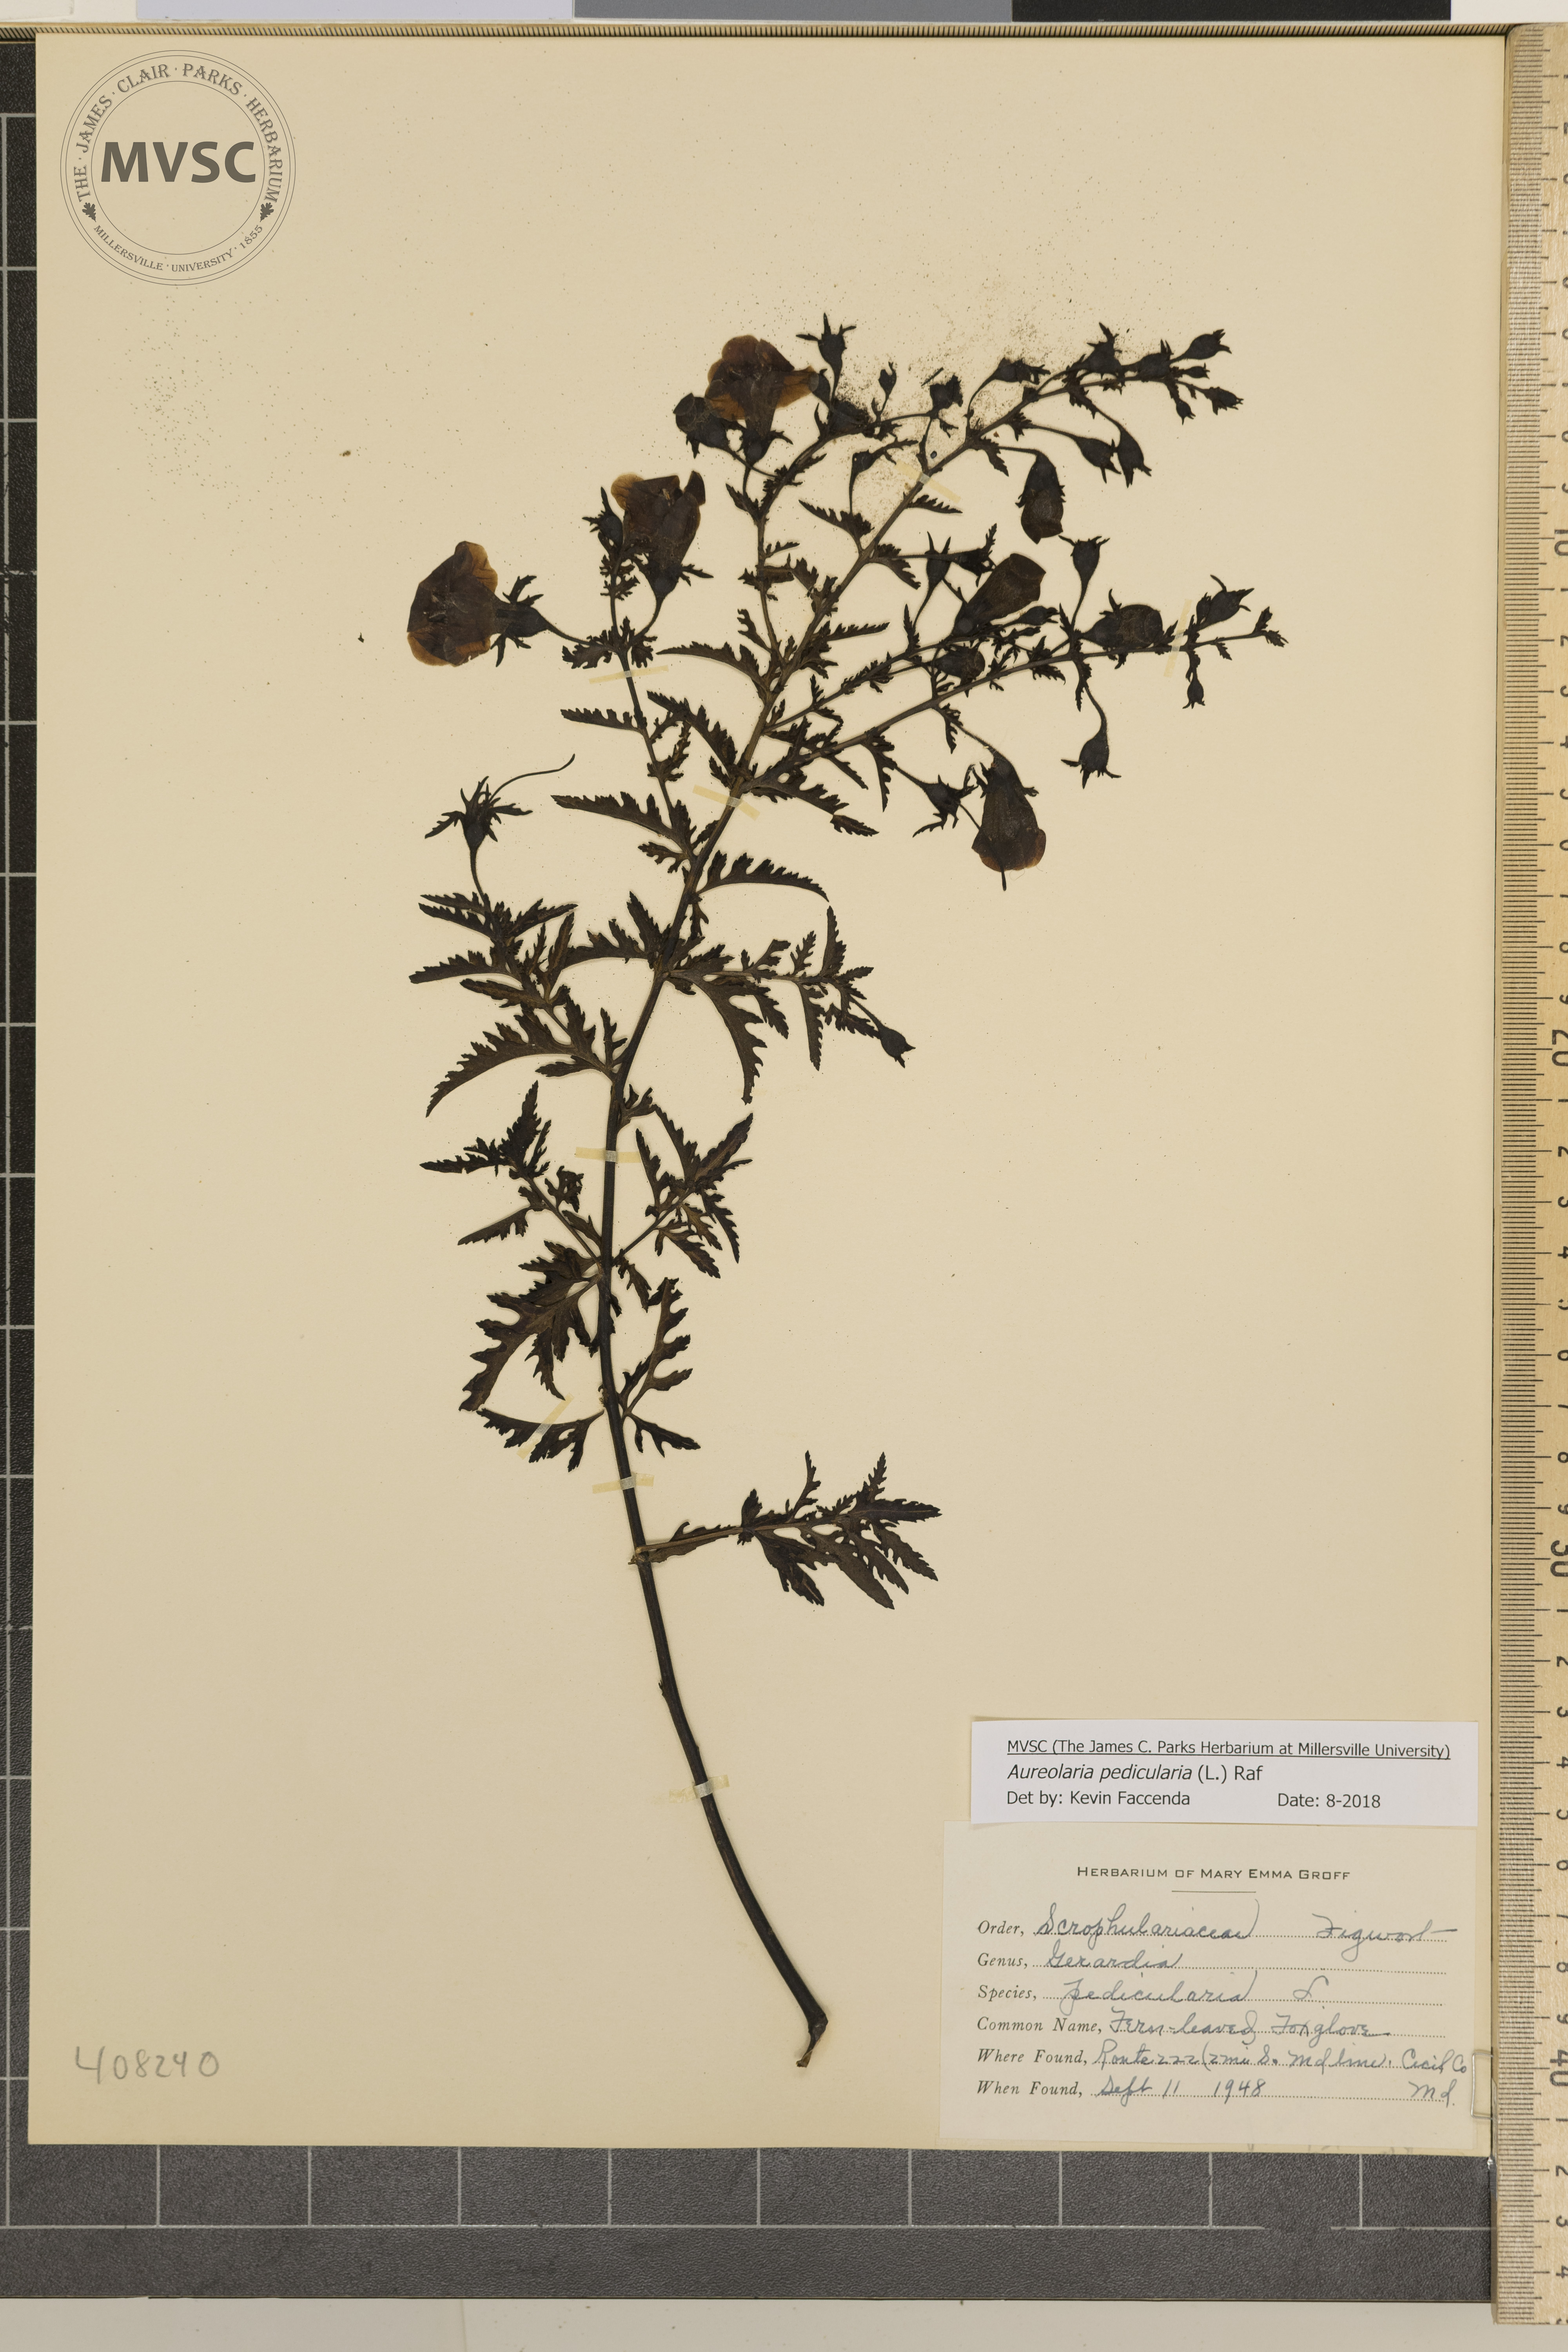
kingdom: Plantae
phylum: Tracheophyta
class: Magnoliopsida
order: Lamiales
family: Orobanchaceae
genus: Aureolaria
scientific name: Aureolaria pedicularia
